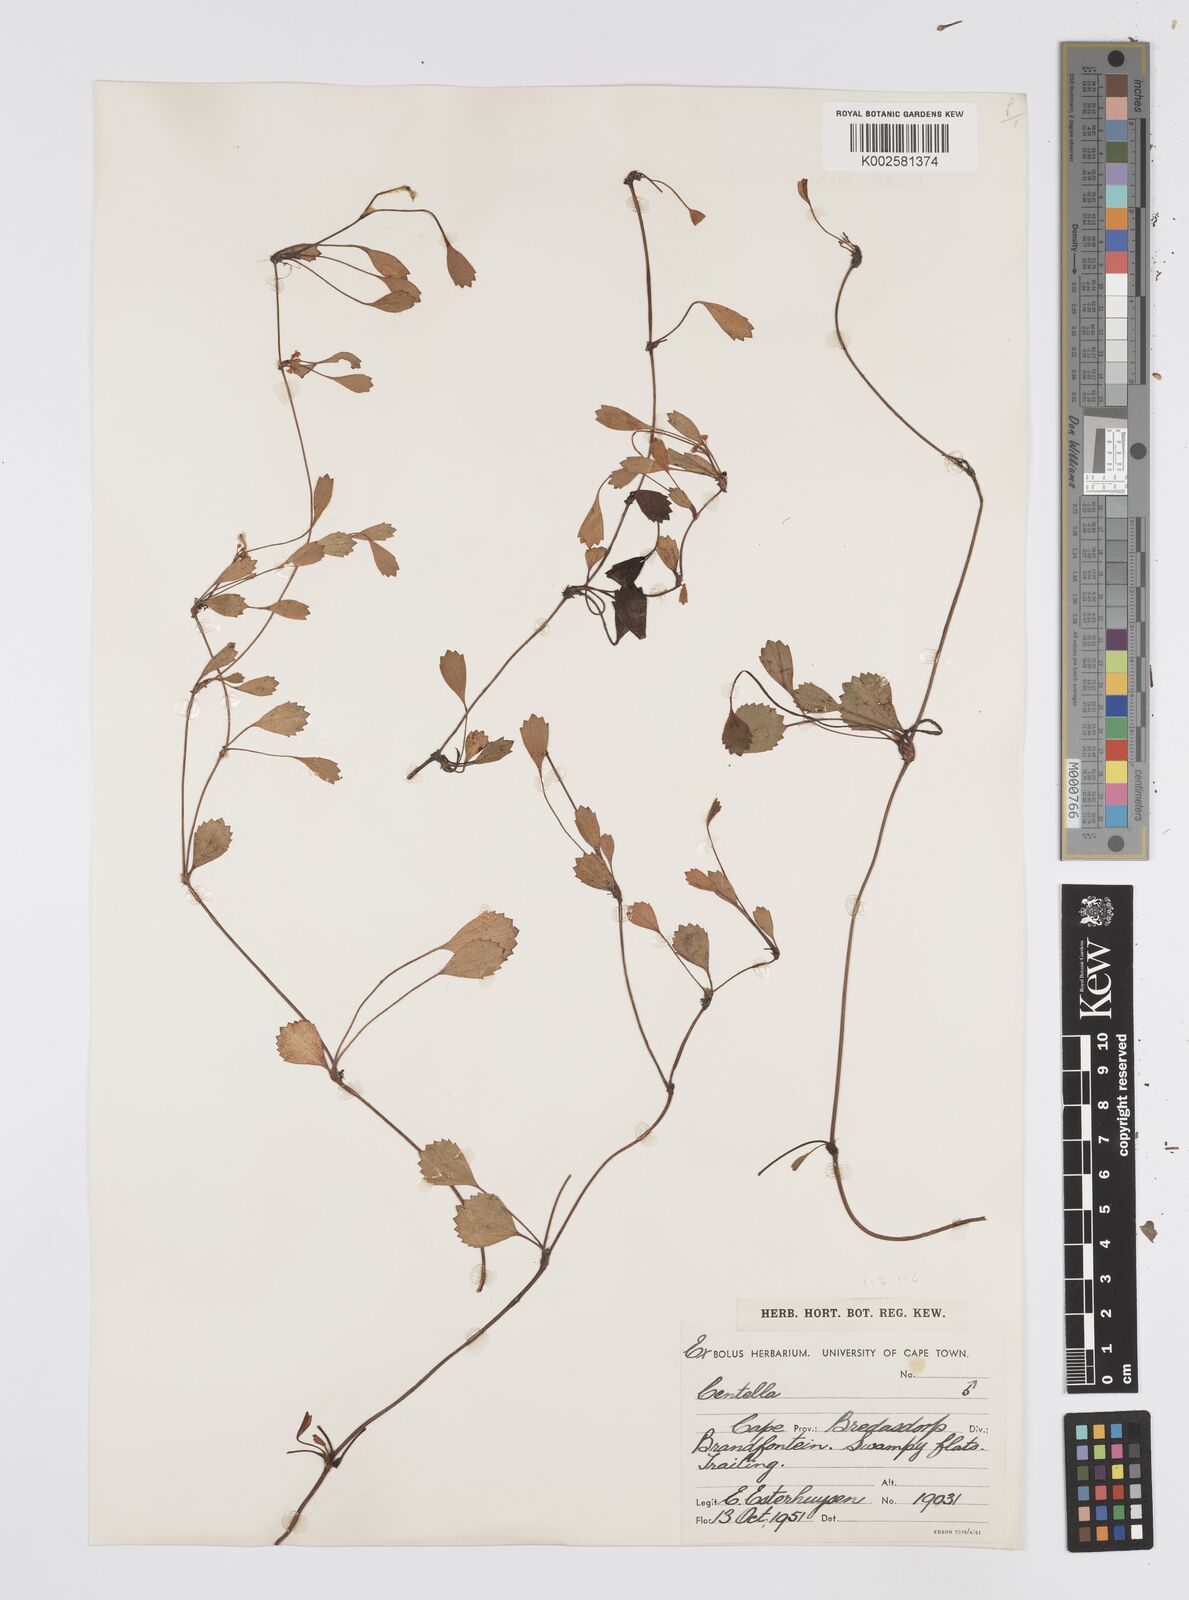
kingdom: Plantae
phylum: Tracheophyta
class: Magnoliopsida
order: Apiales
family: Apiaceae
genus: Centella
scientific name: Centella
